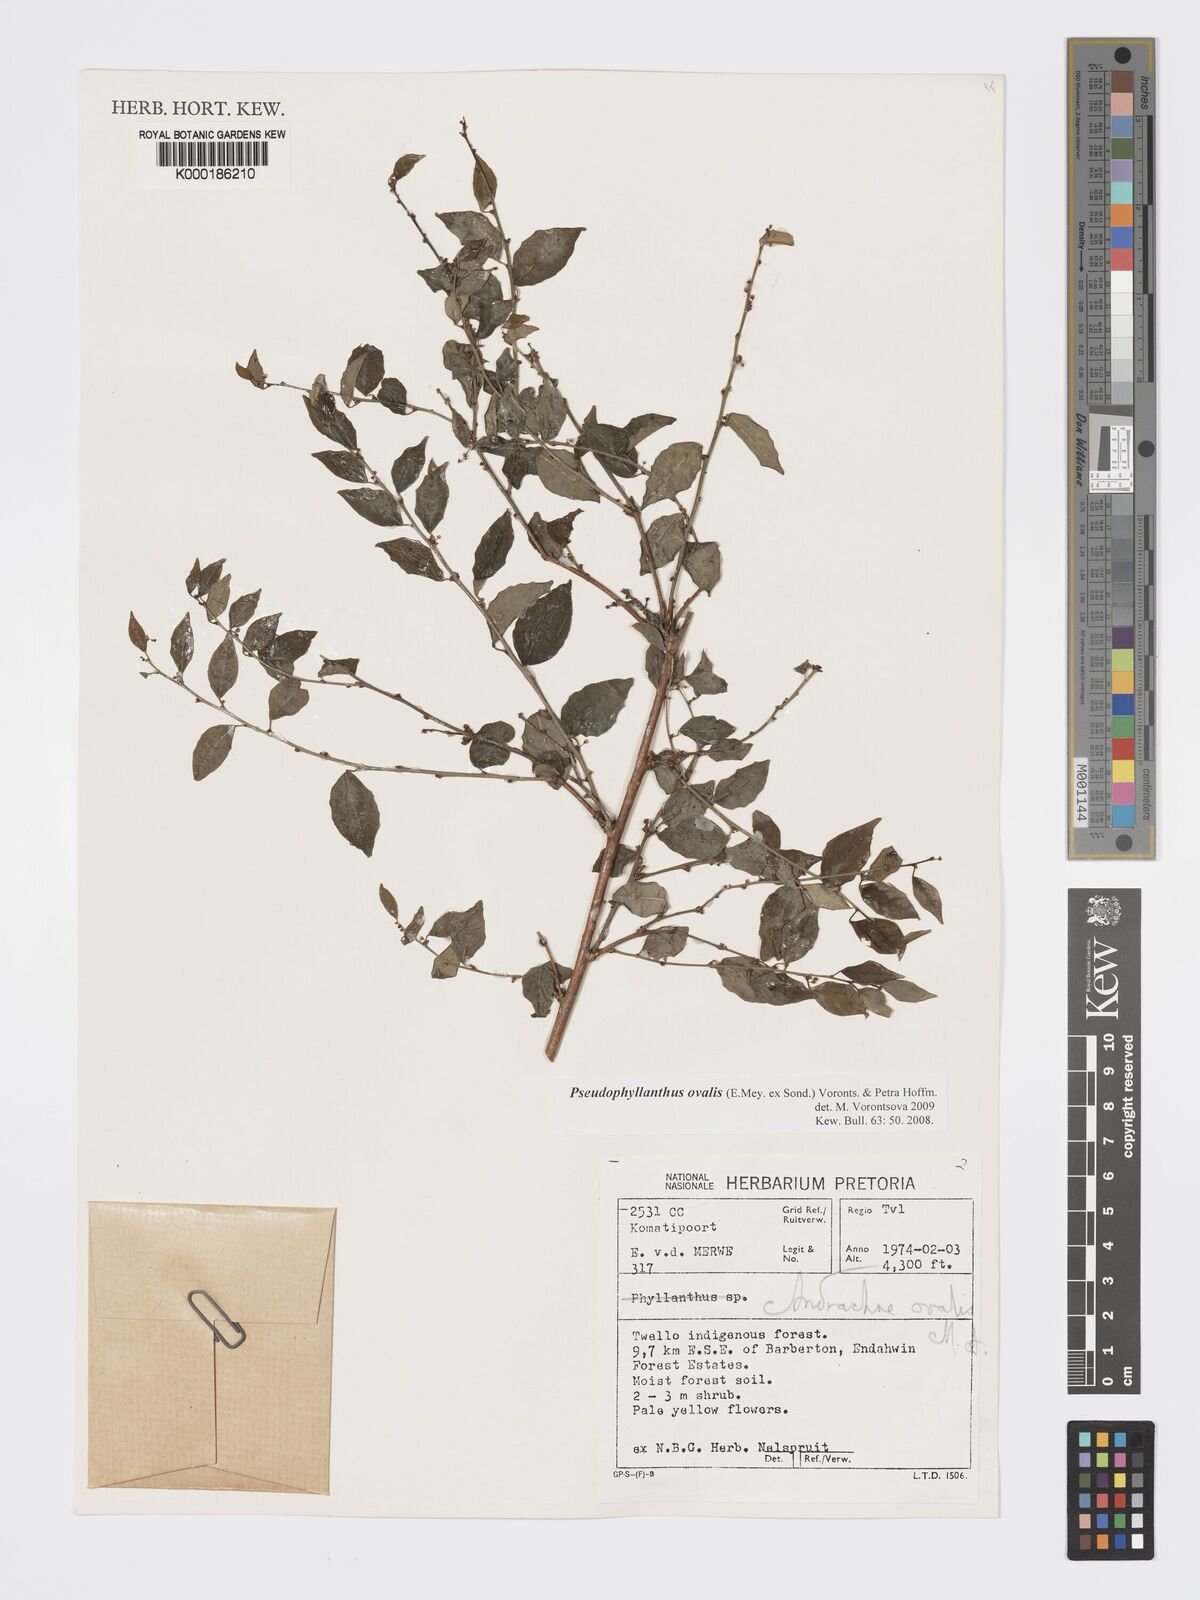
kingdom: Plantae
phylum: Tracheophyta
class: Magnoliopsida
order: Malpighiales
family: Phyllanthaceae
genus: Pseudophyllanthus
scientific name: Pseudophyllanthus ovalis
